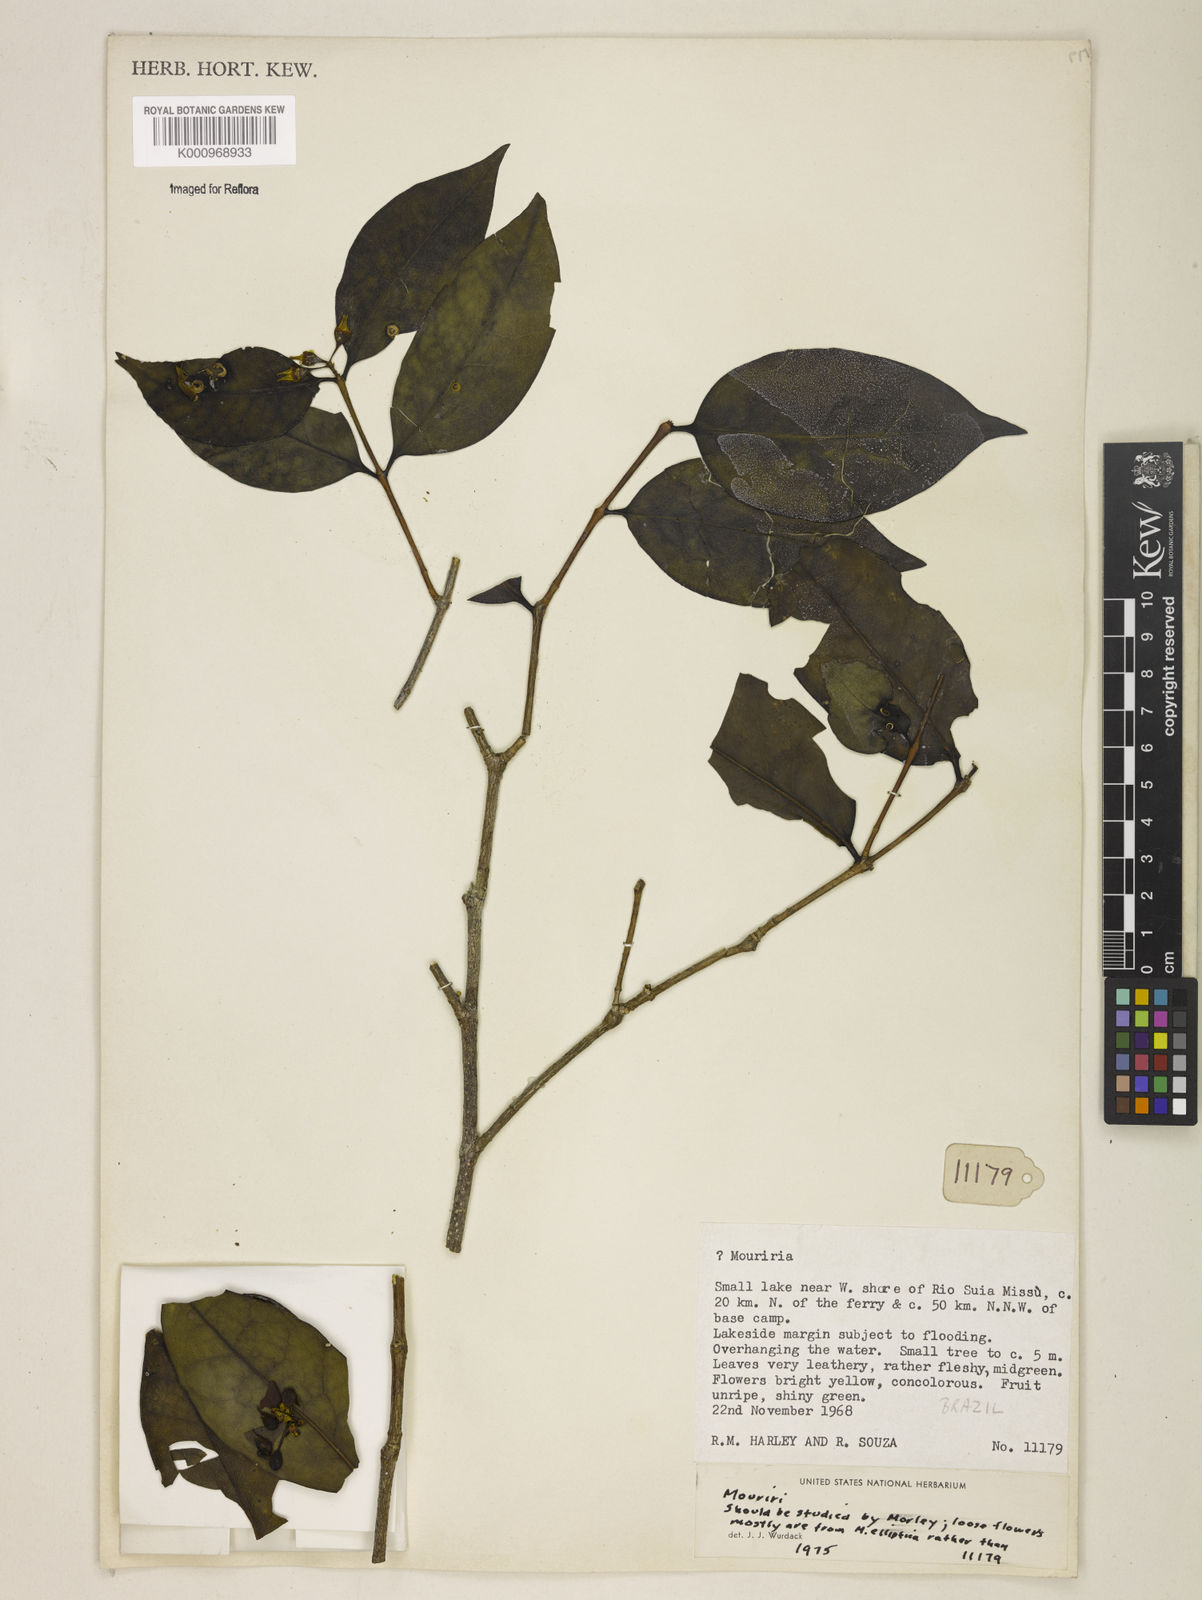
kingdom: Plantae
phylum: Tracheophyta
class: Magnoliopsida
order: Myrtales
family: Melastomataceae
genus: Mouriri
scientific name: Mouriri
